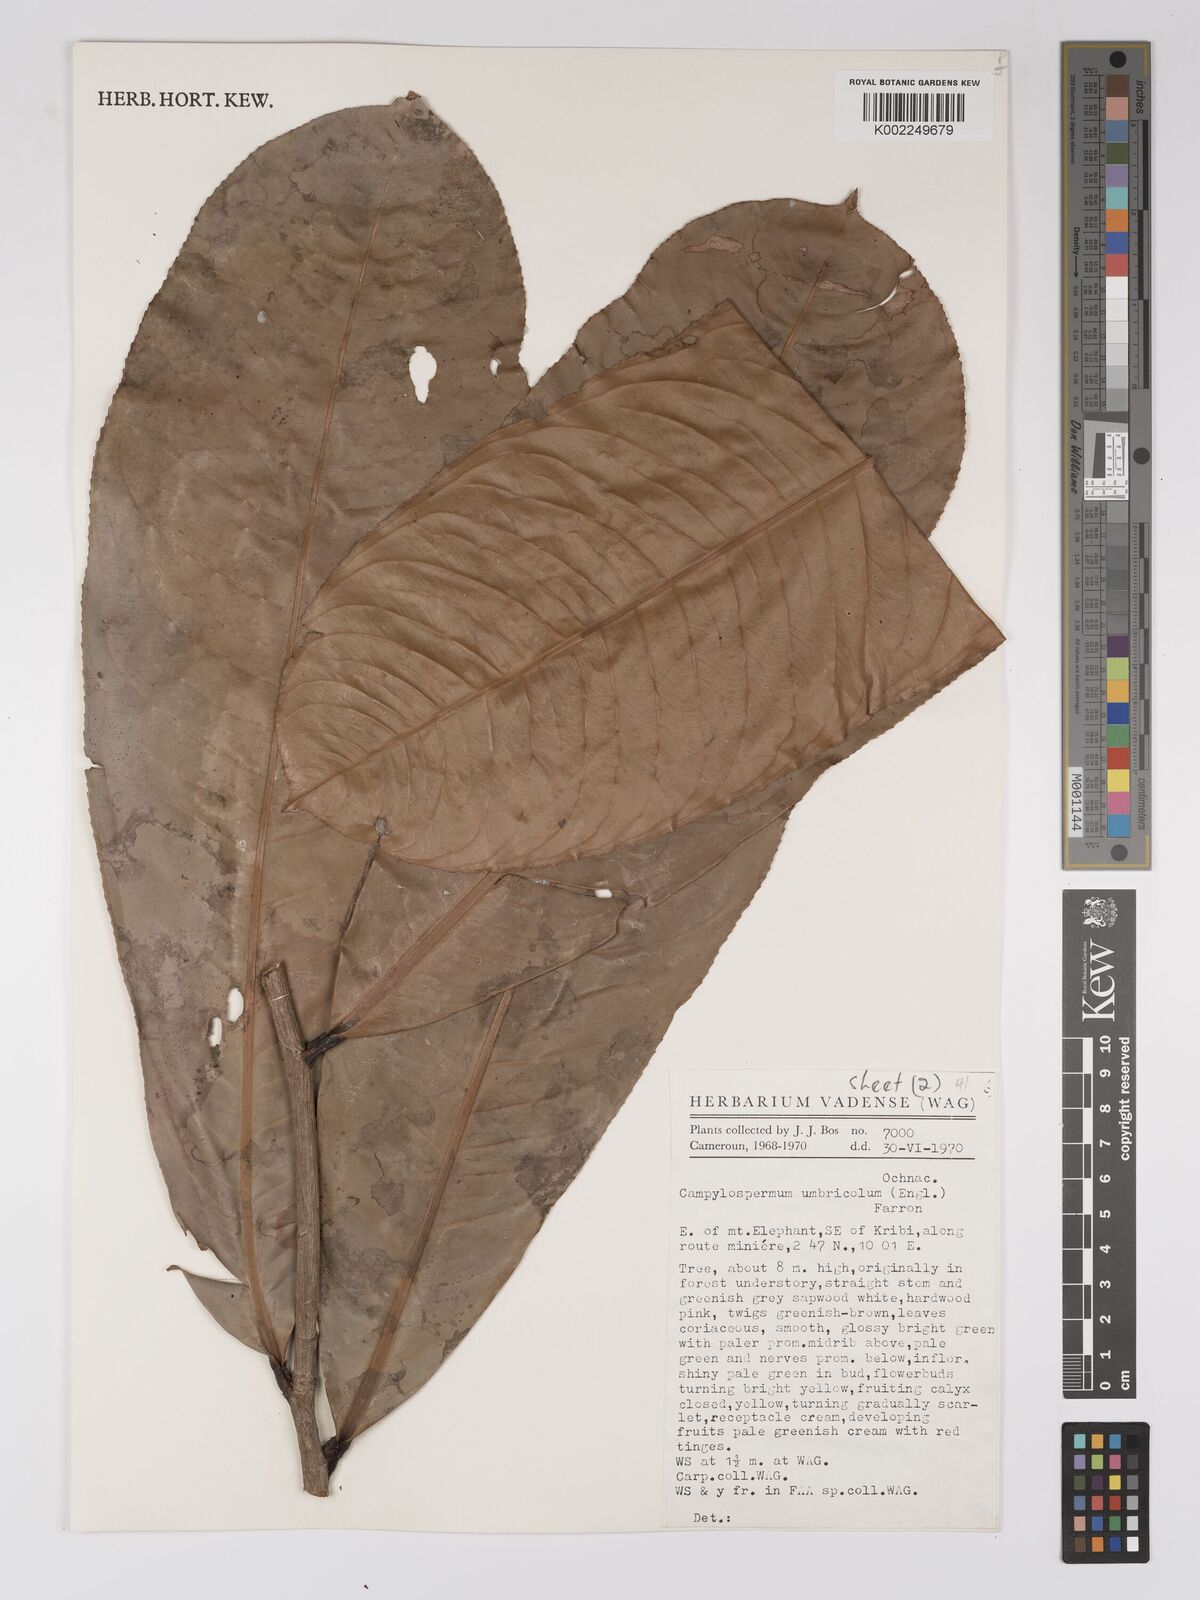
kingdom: Plantae
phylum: Tracheophyta
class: Magnoliopsida
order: Malpighiales
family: Ochnaceae
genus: Campylospermum
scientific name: Campylospermum umbricola
